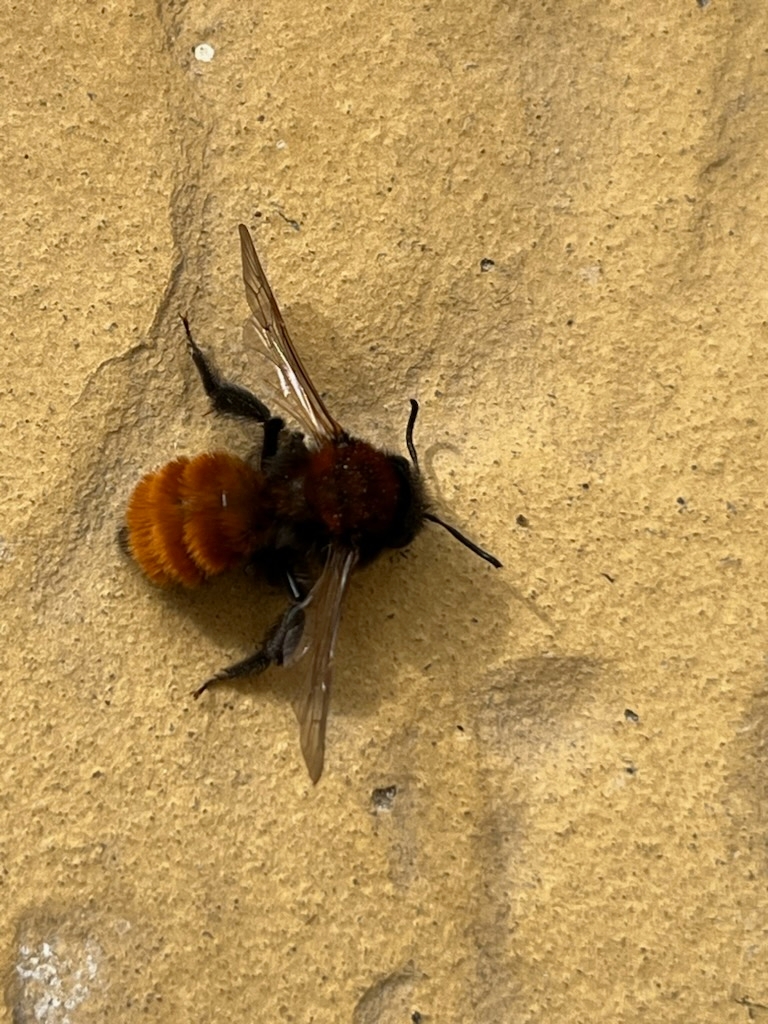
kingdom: Animalia
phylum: Arthropoda
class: Insecta
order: Hymenoptera
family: Andrenidae
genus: Andrena
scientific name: Andrena fulva
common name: Rødpelset jordbi
